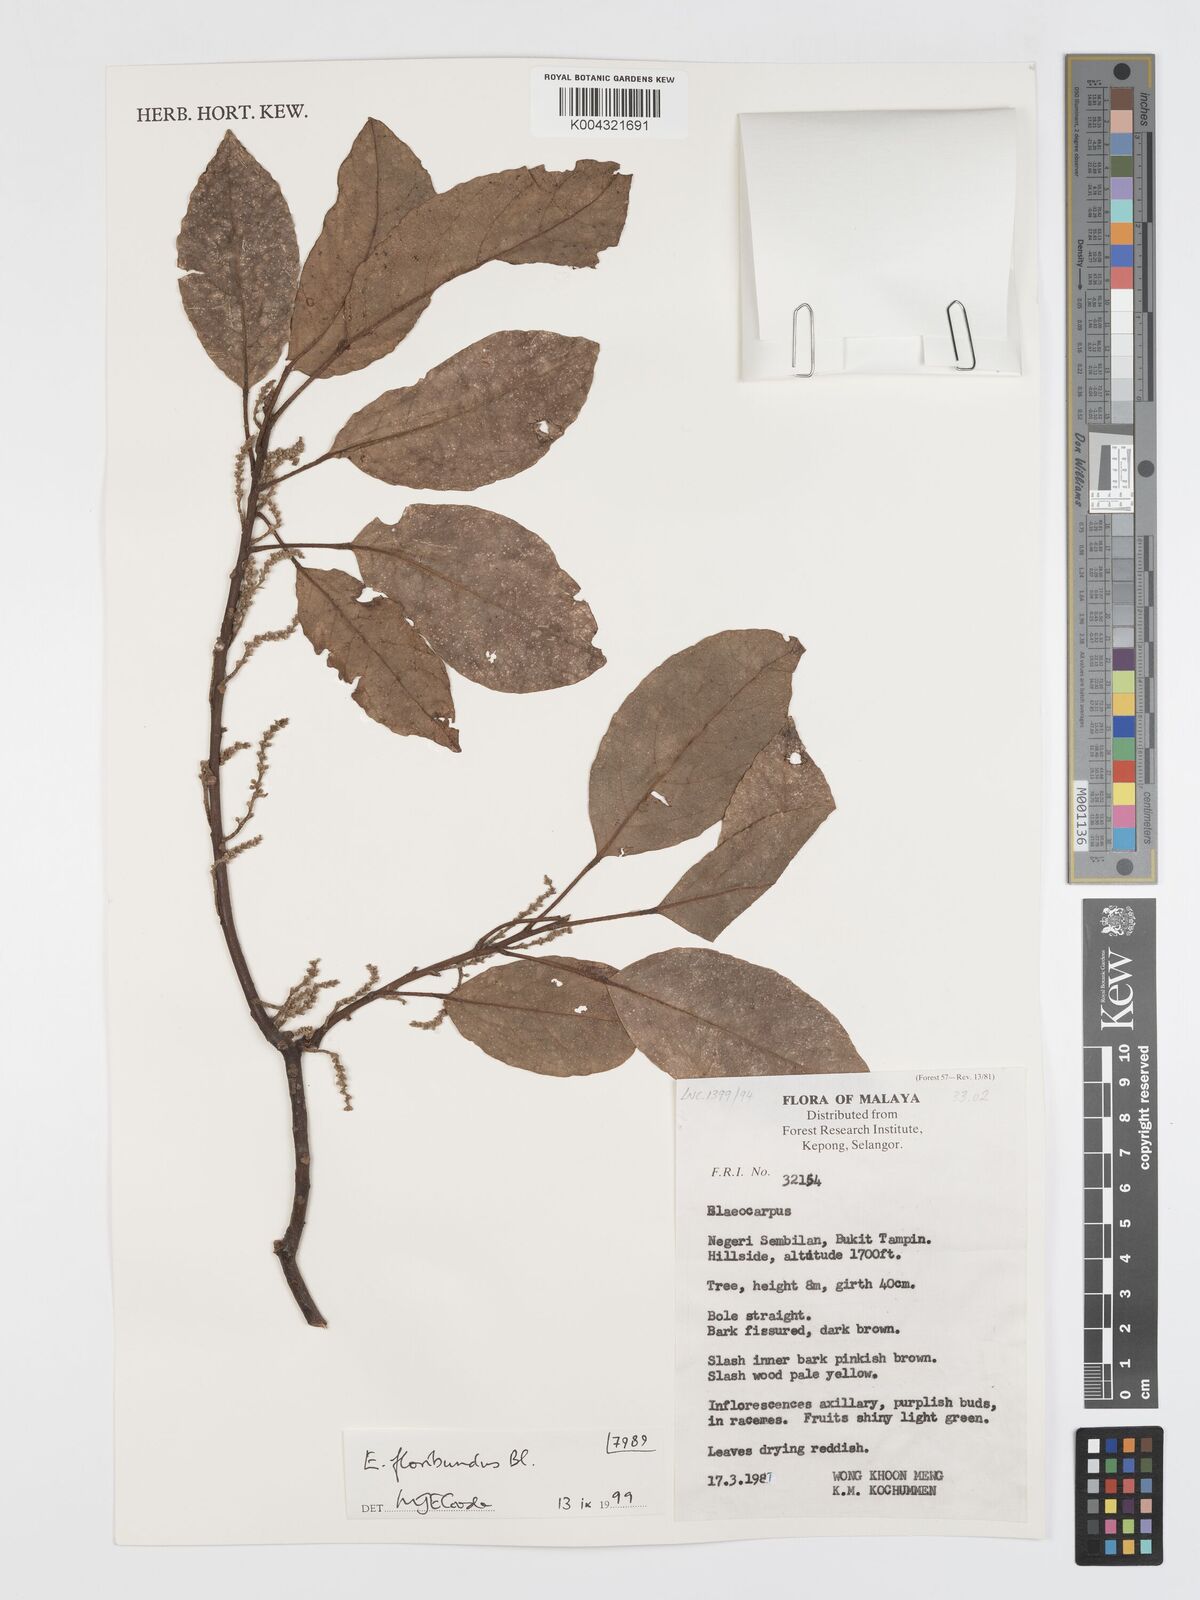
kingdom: Plantae
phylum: Tracheophyta
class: Magnoliopsida
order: Oxalidales
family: Elaeocarpaceae
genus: Elaeocarpus
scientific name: Elaeocarpus floribundus
